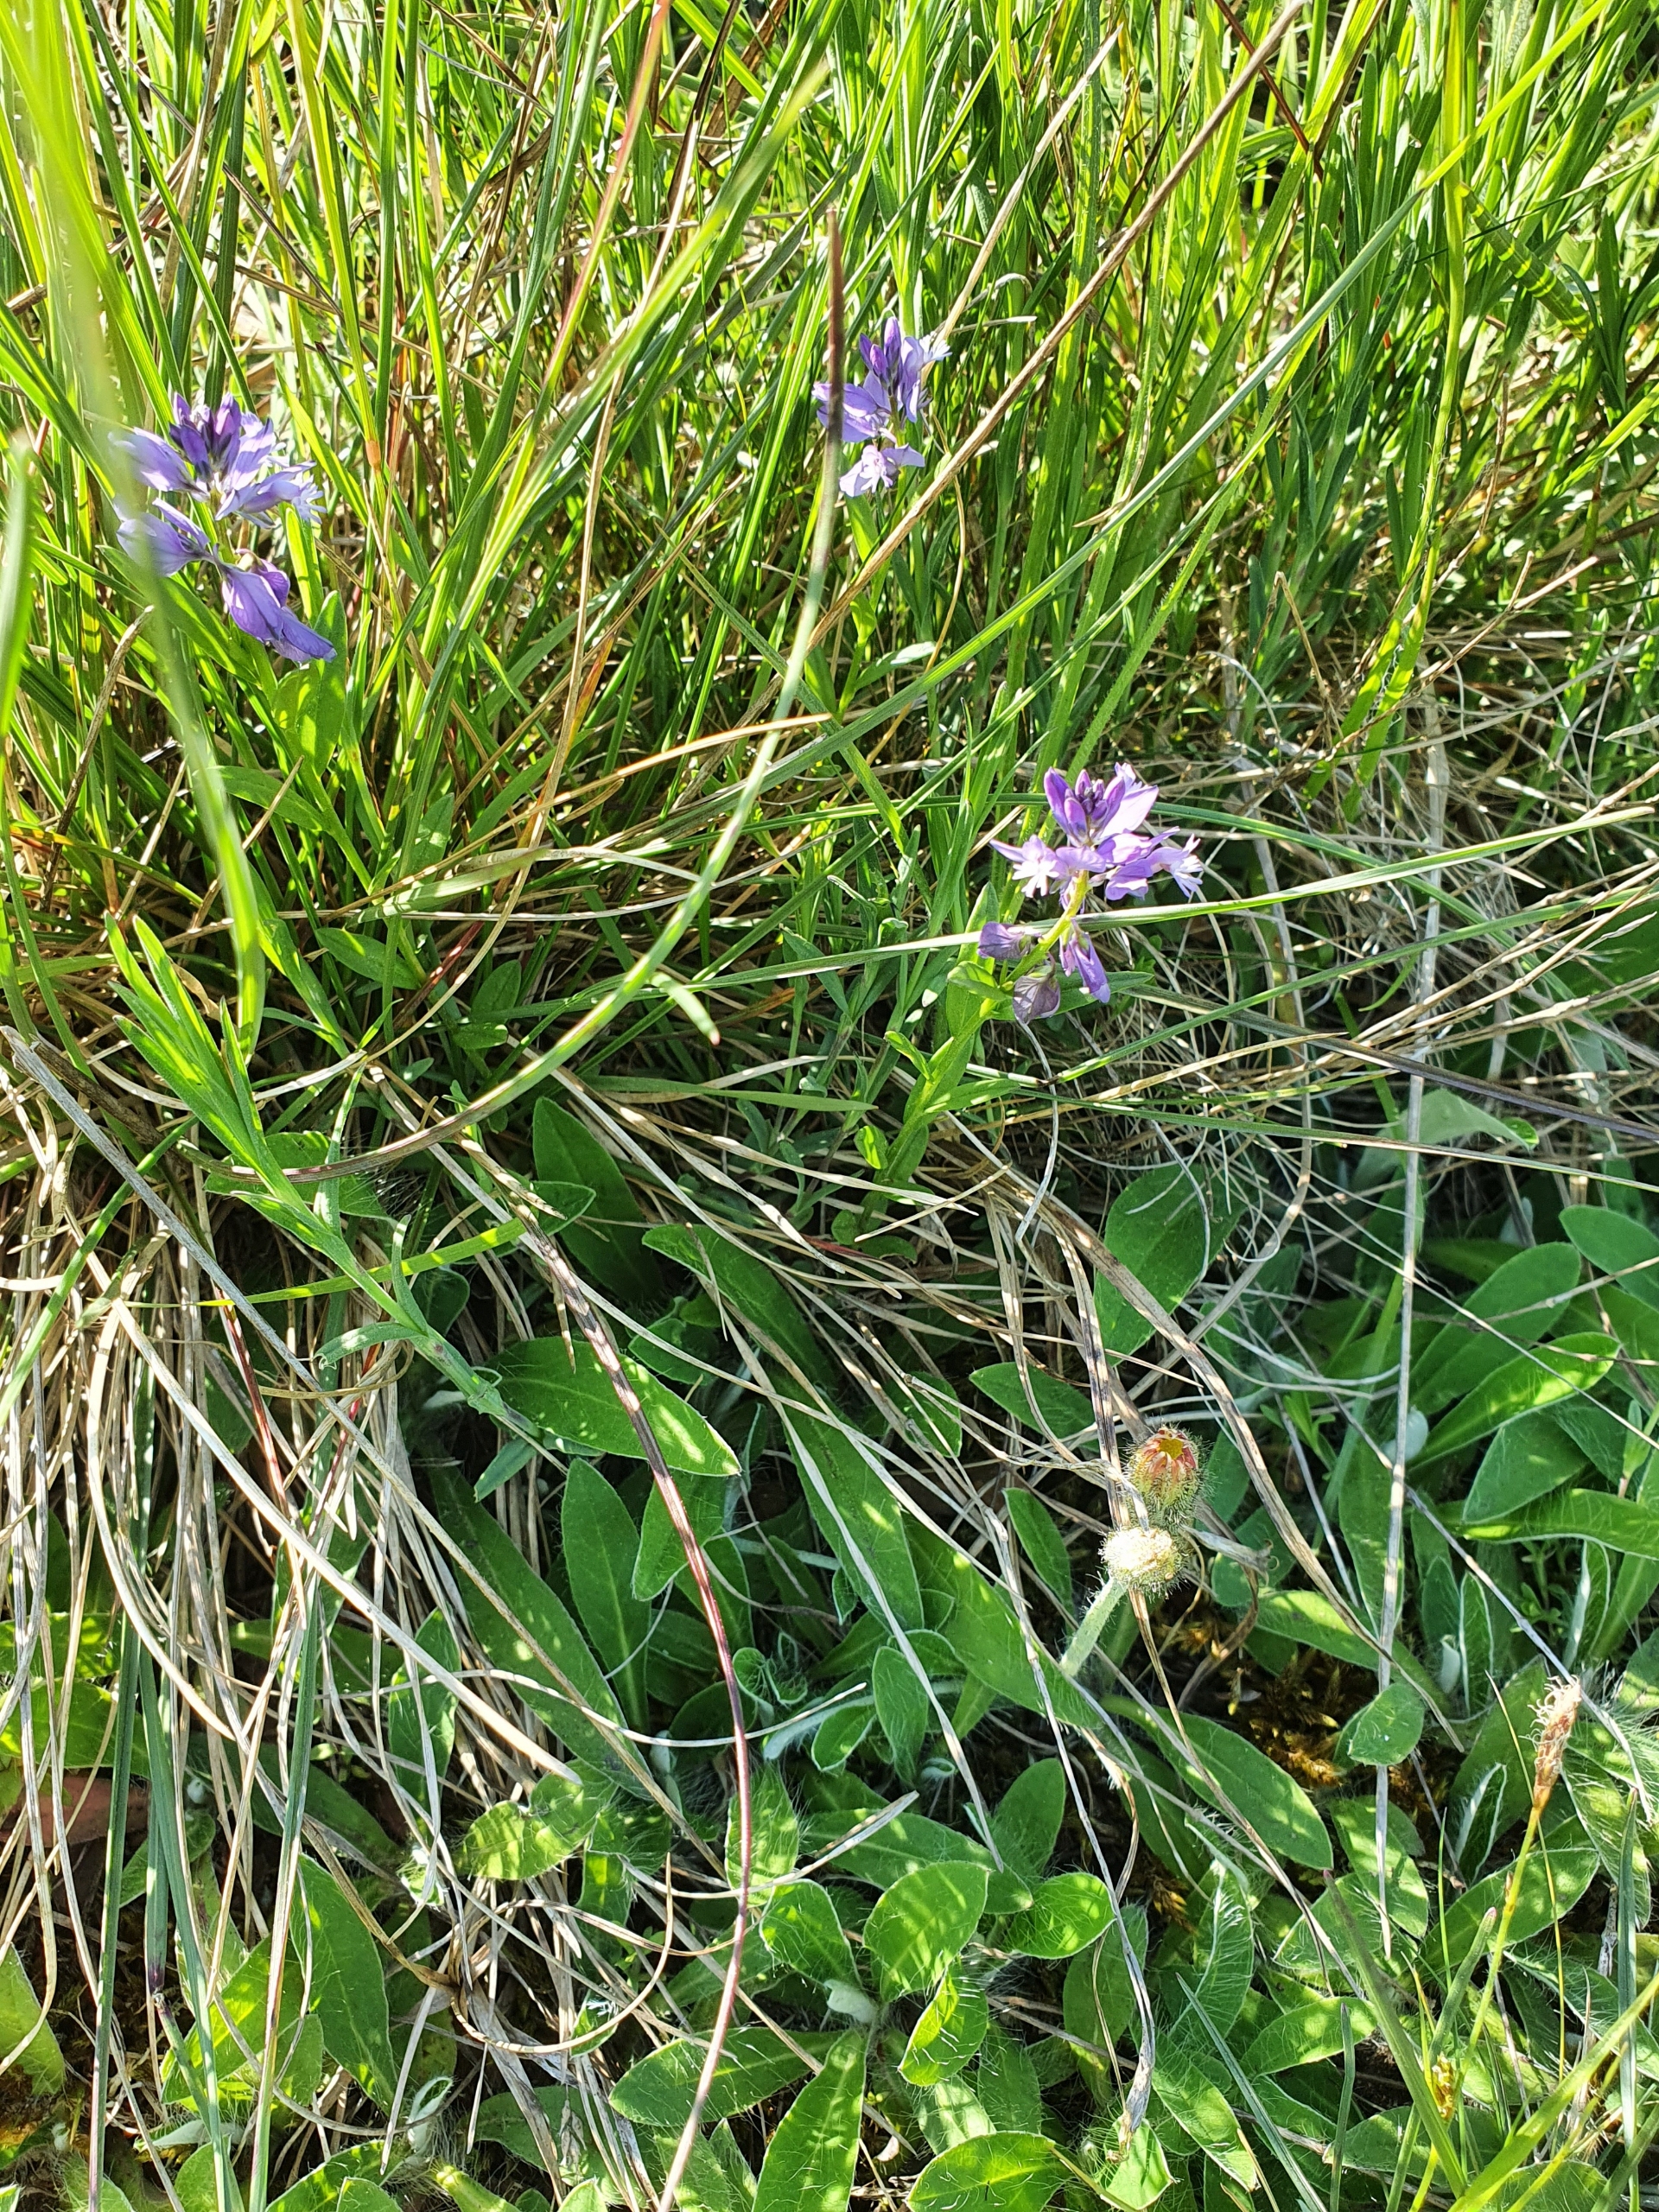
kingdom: Plantae
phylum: Tracheophyta
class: Magnoliopsida
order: Fabales
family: Polygalaceae
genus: Polygala
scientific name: Polygala vulgaris
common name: Almindelig mælkeurt
